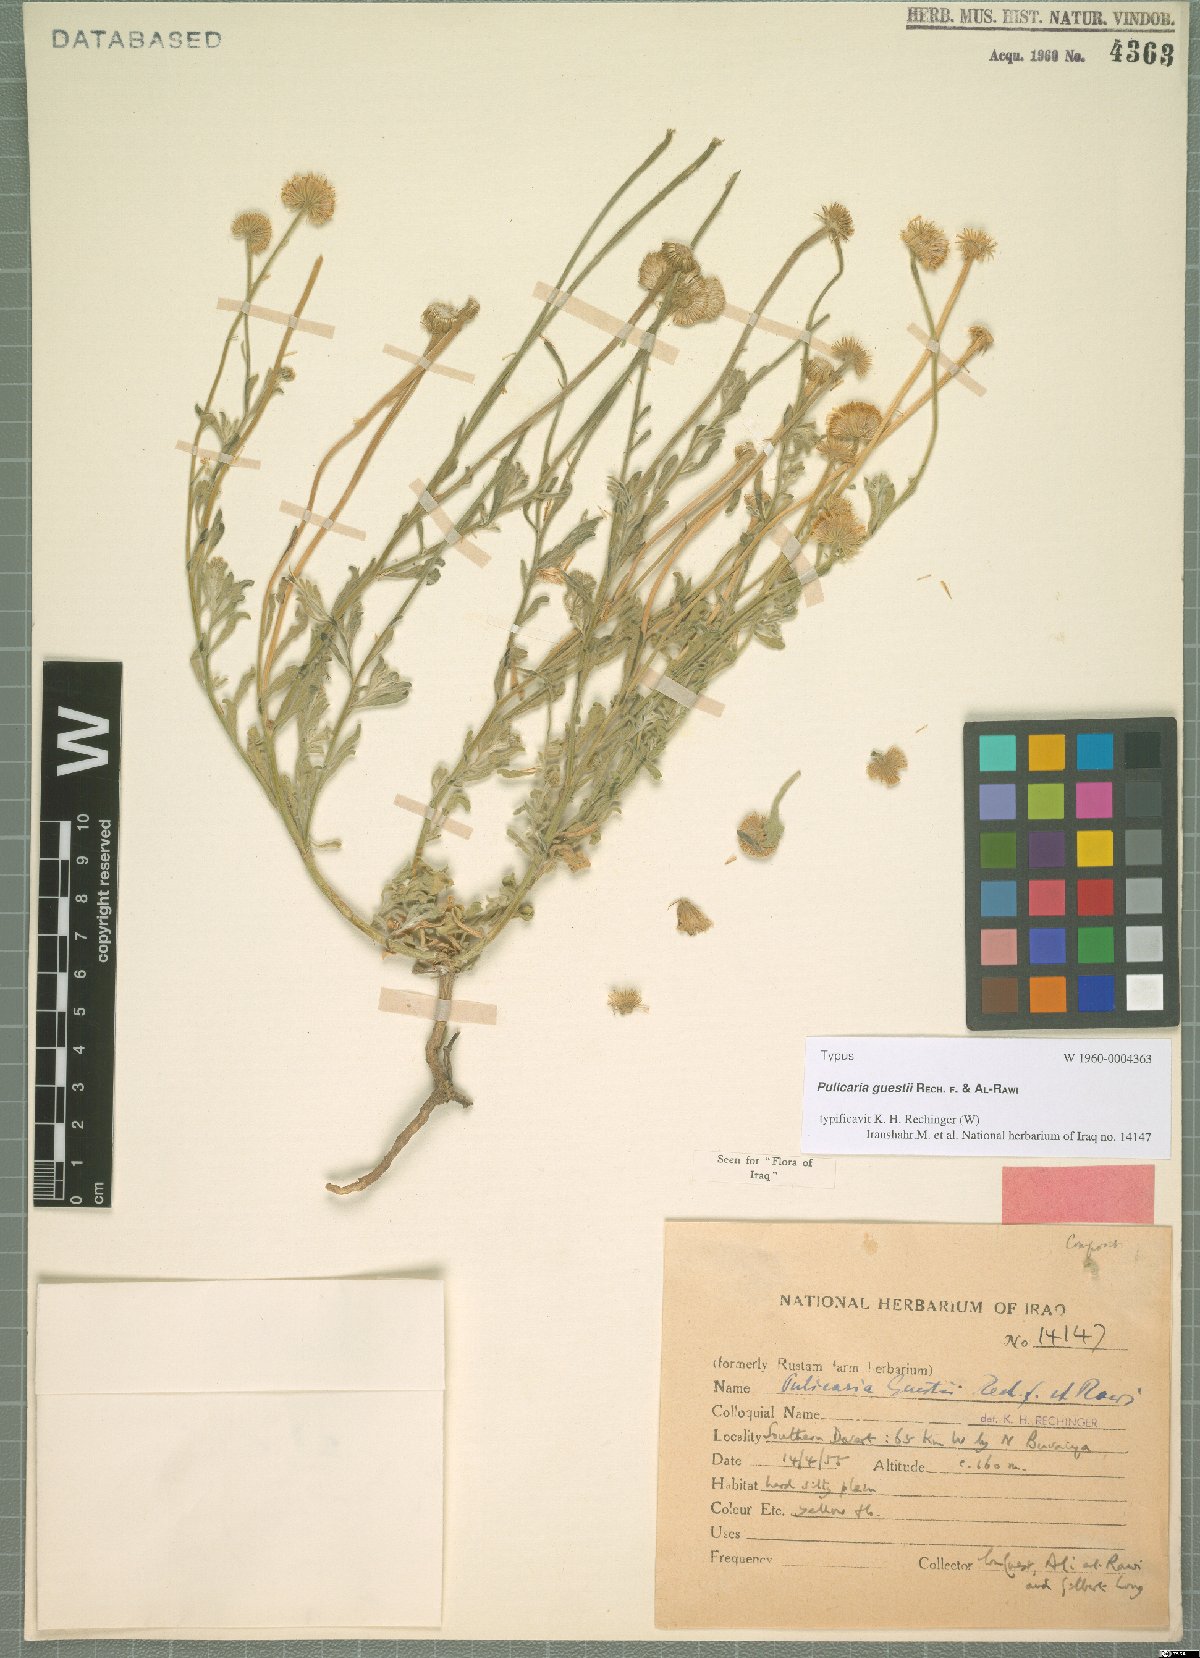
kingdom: Plantae
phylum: Tracheophyta
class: Magnoliopsida
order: Asterales
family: Asteraceae
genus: Pulicaria
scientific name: Pulicaria guestii
